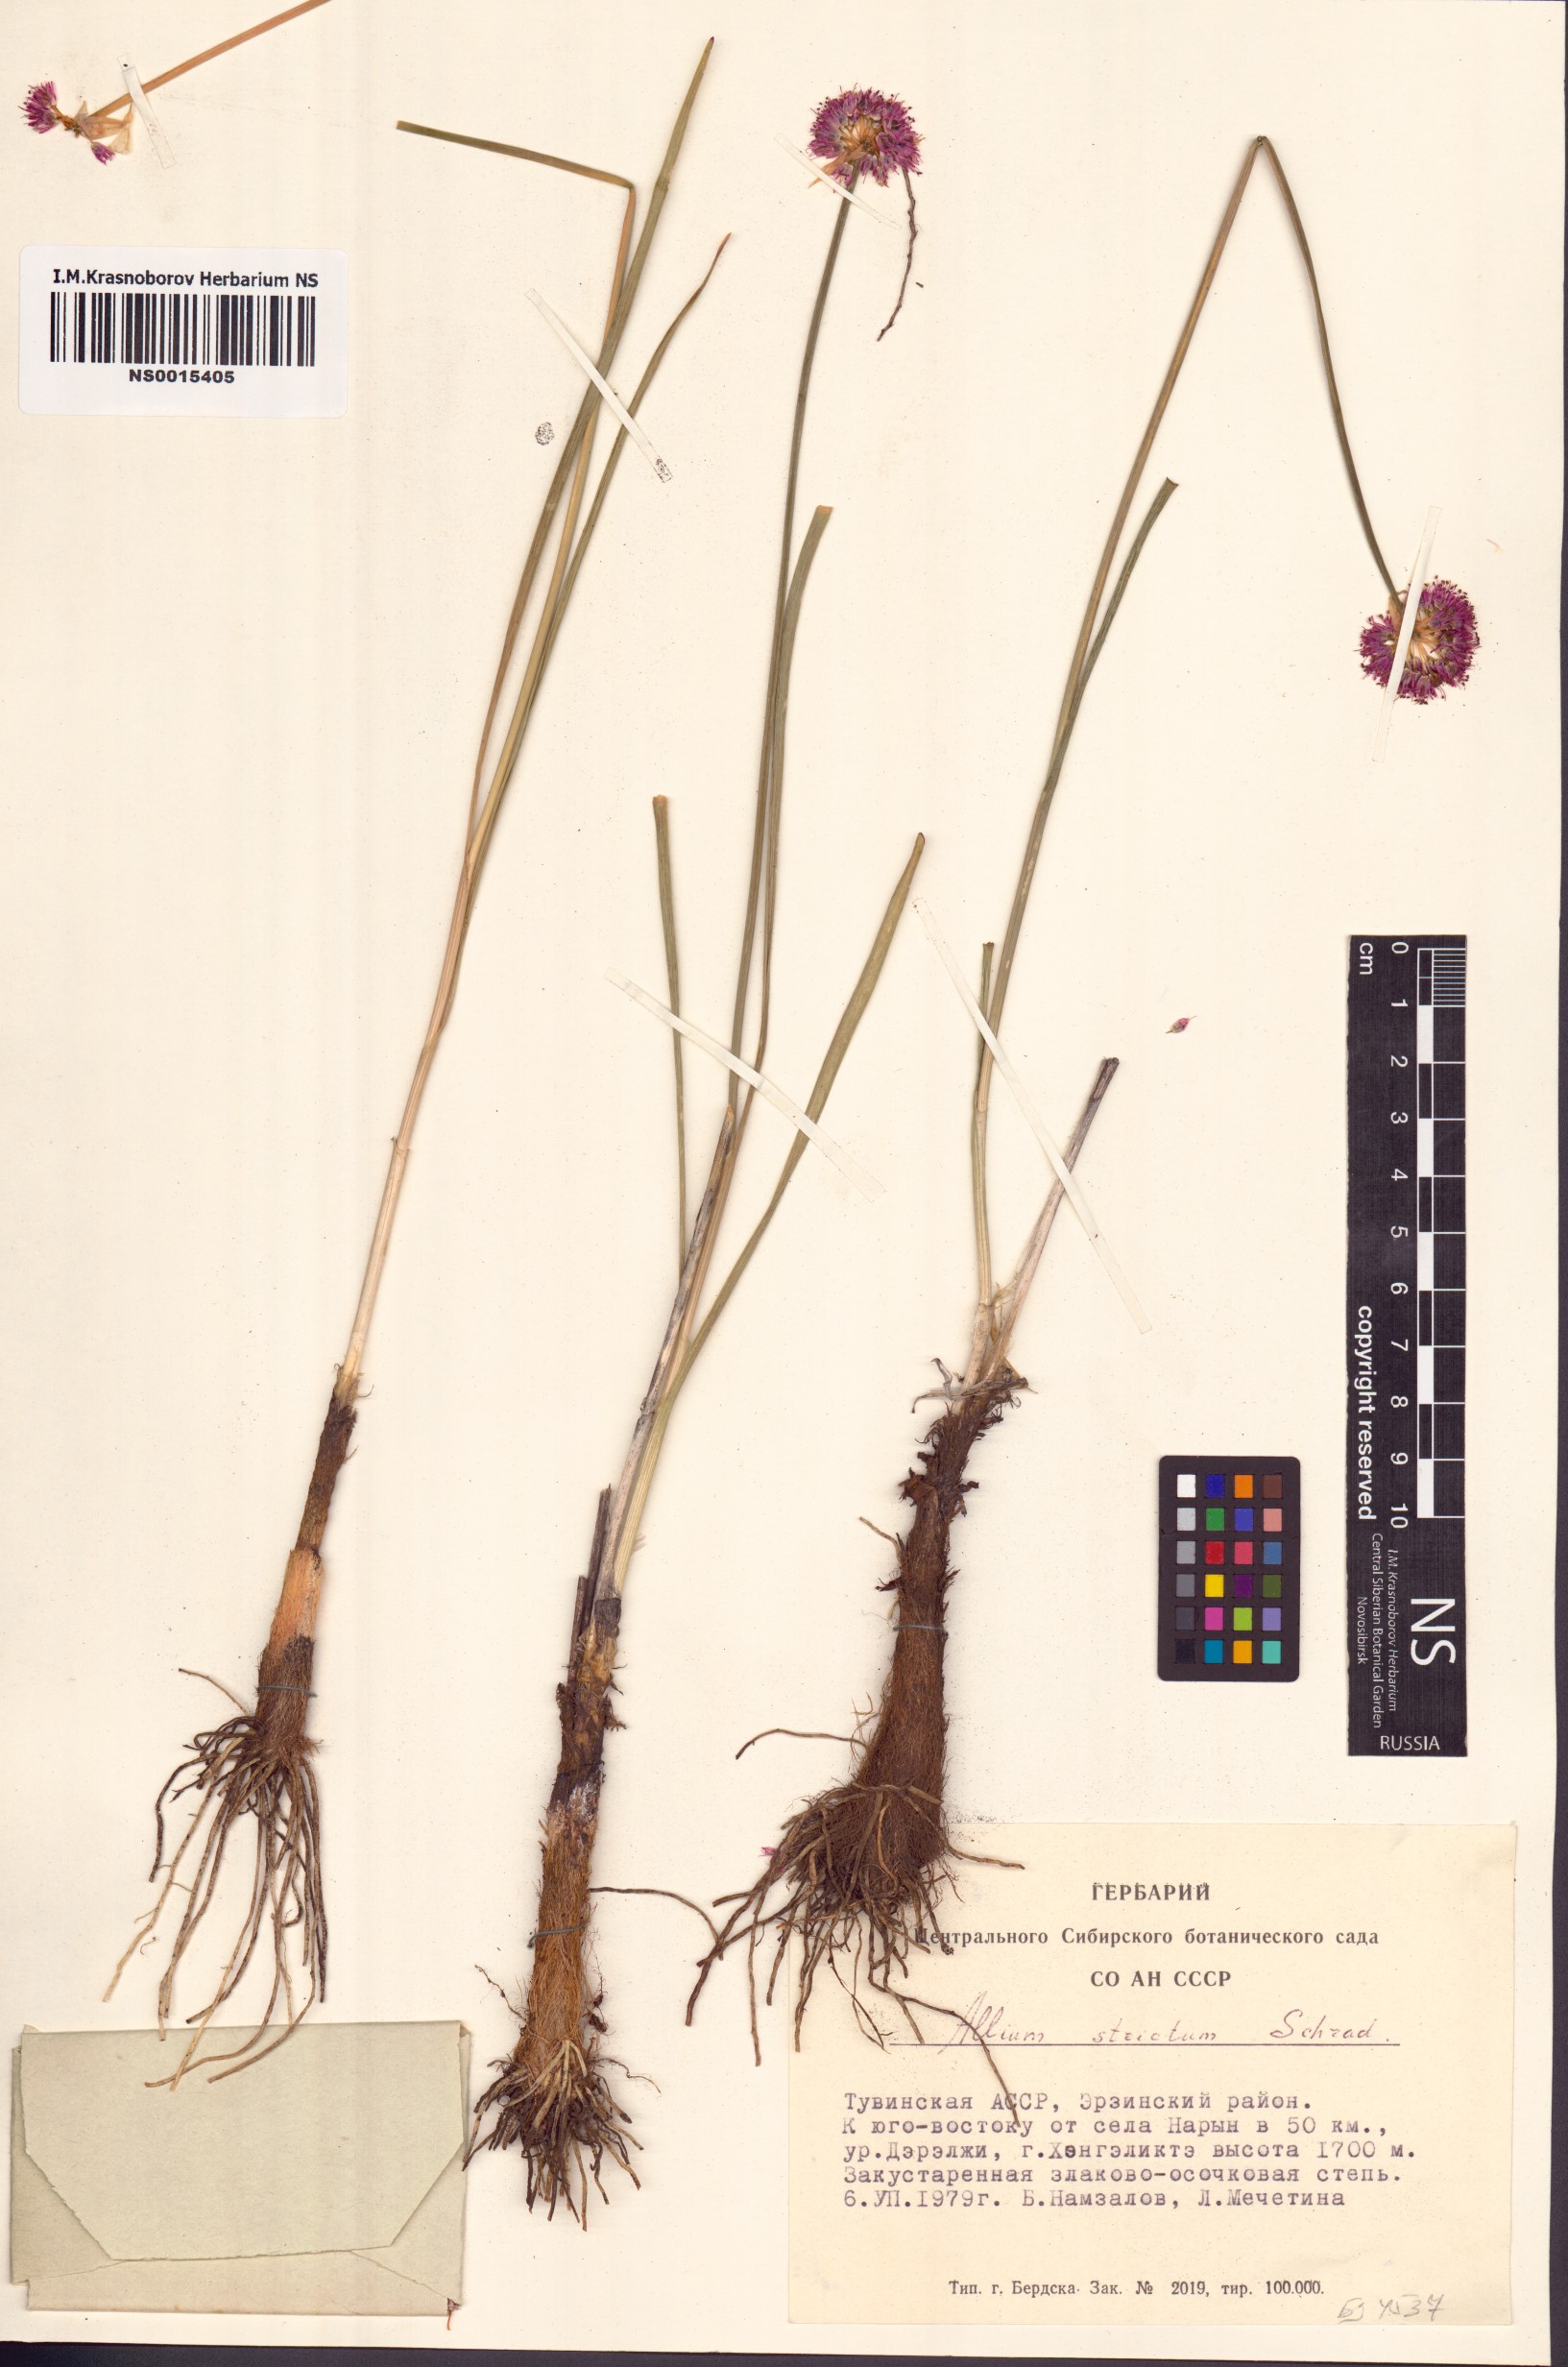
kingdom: Plantae
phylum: Tracheophyta
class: Liliopsida
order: Asparagales
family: Amaryllidaceae
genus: Allium
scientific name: Allium strictum
